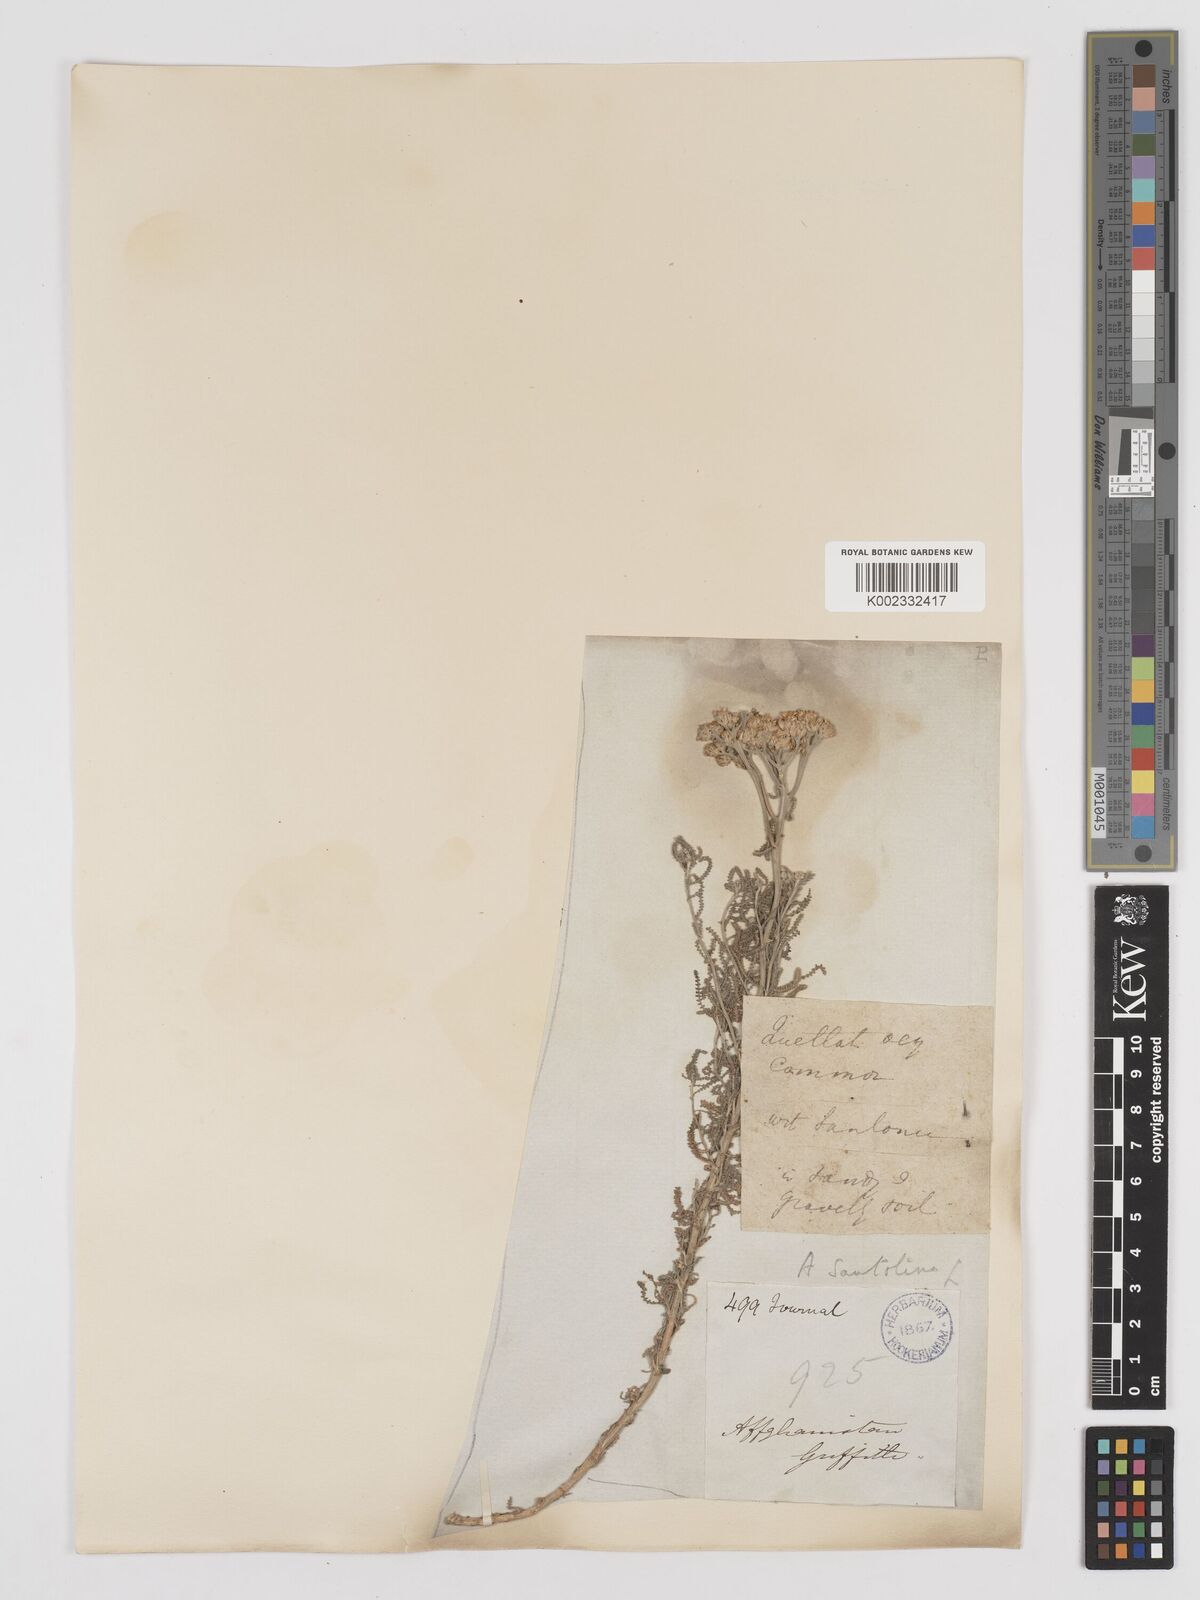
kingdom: Plantae
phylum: Tracheophyta
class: Magnoliopsida
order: Asterales
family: Asteraceae
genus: Achillea
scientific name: Achillea tenuifolia
